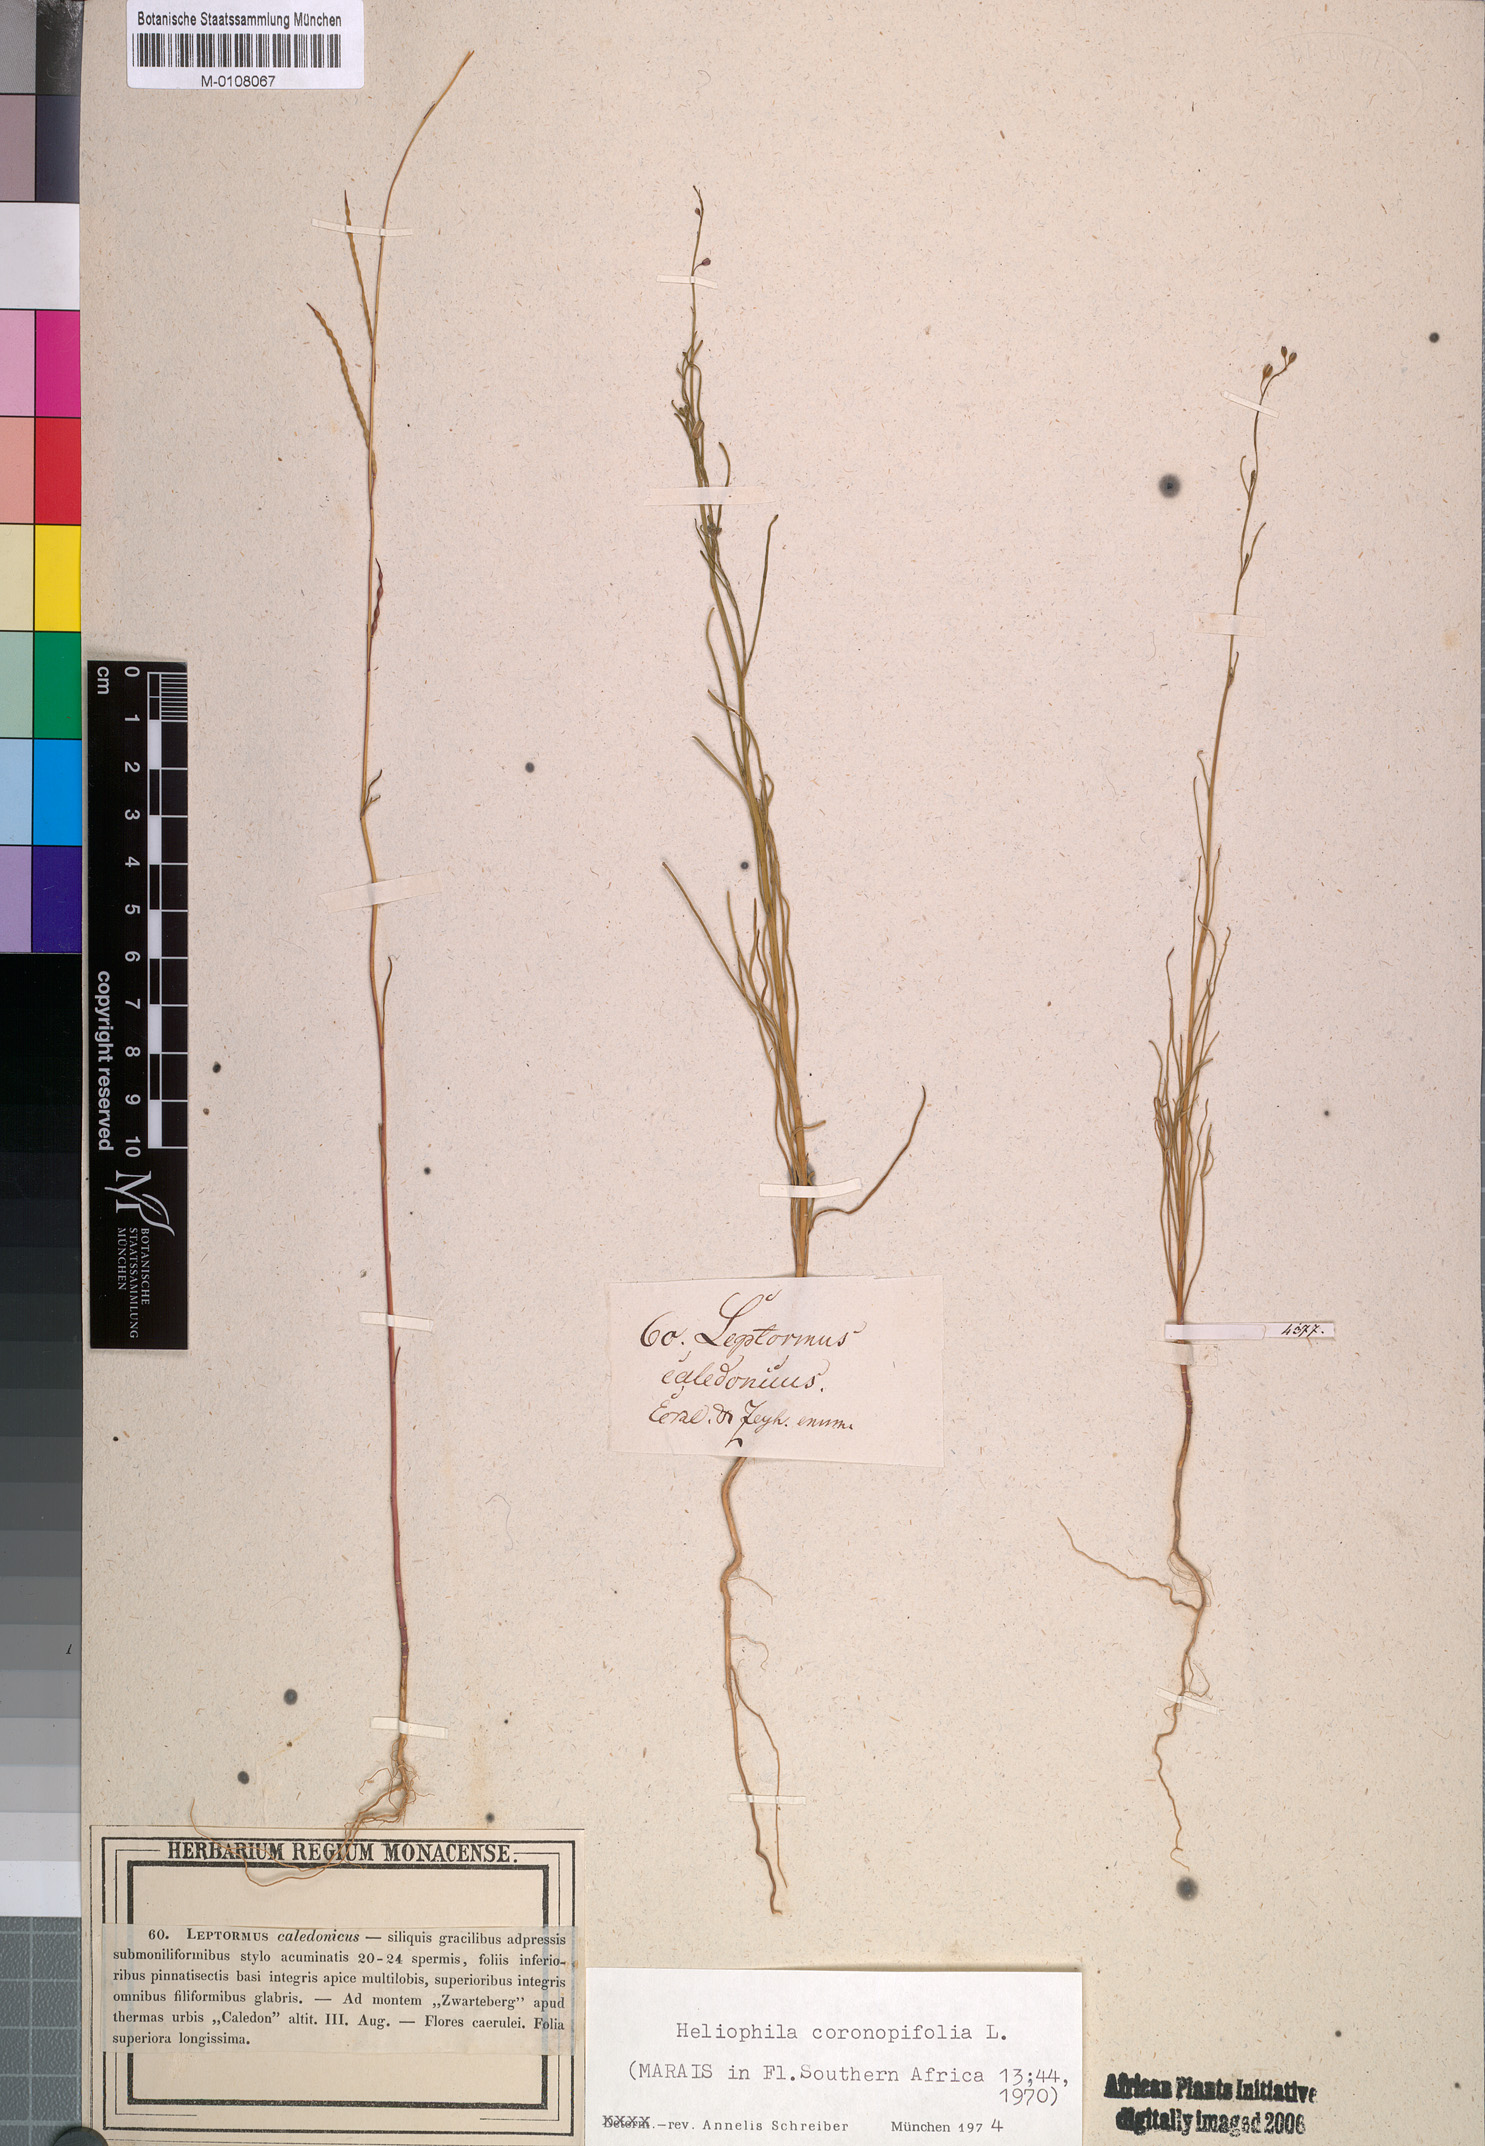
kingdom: Plantae
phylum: Tracheophyta
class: Magnoliopsida
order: Brassicales
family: Brassicaceae
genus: Heliophila
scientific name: Heliophila coronopifolia
